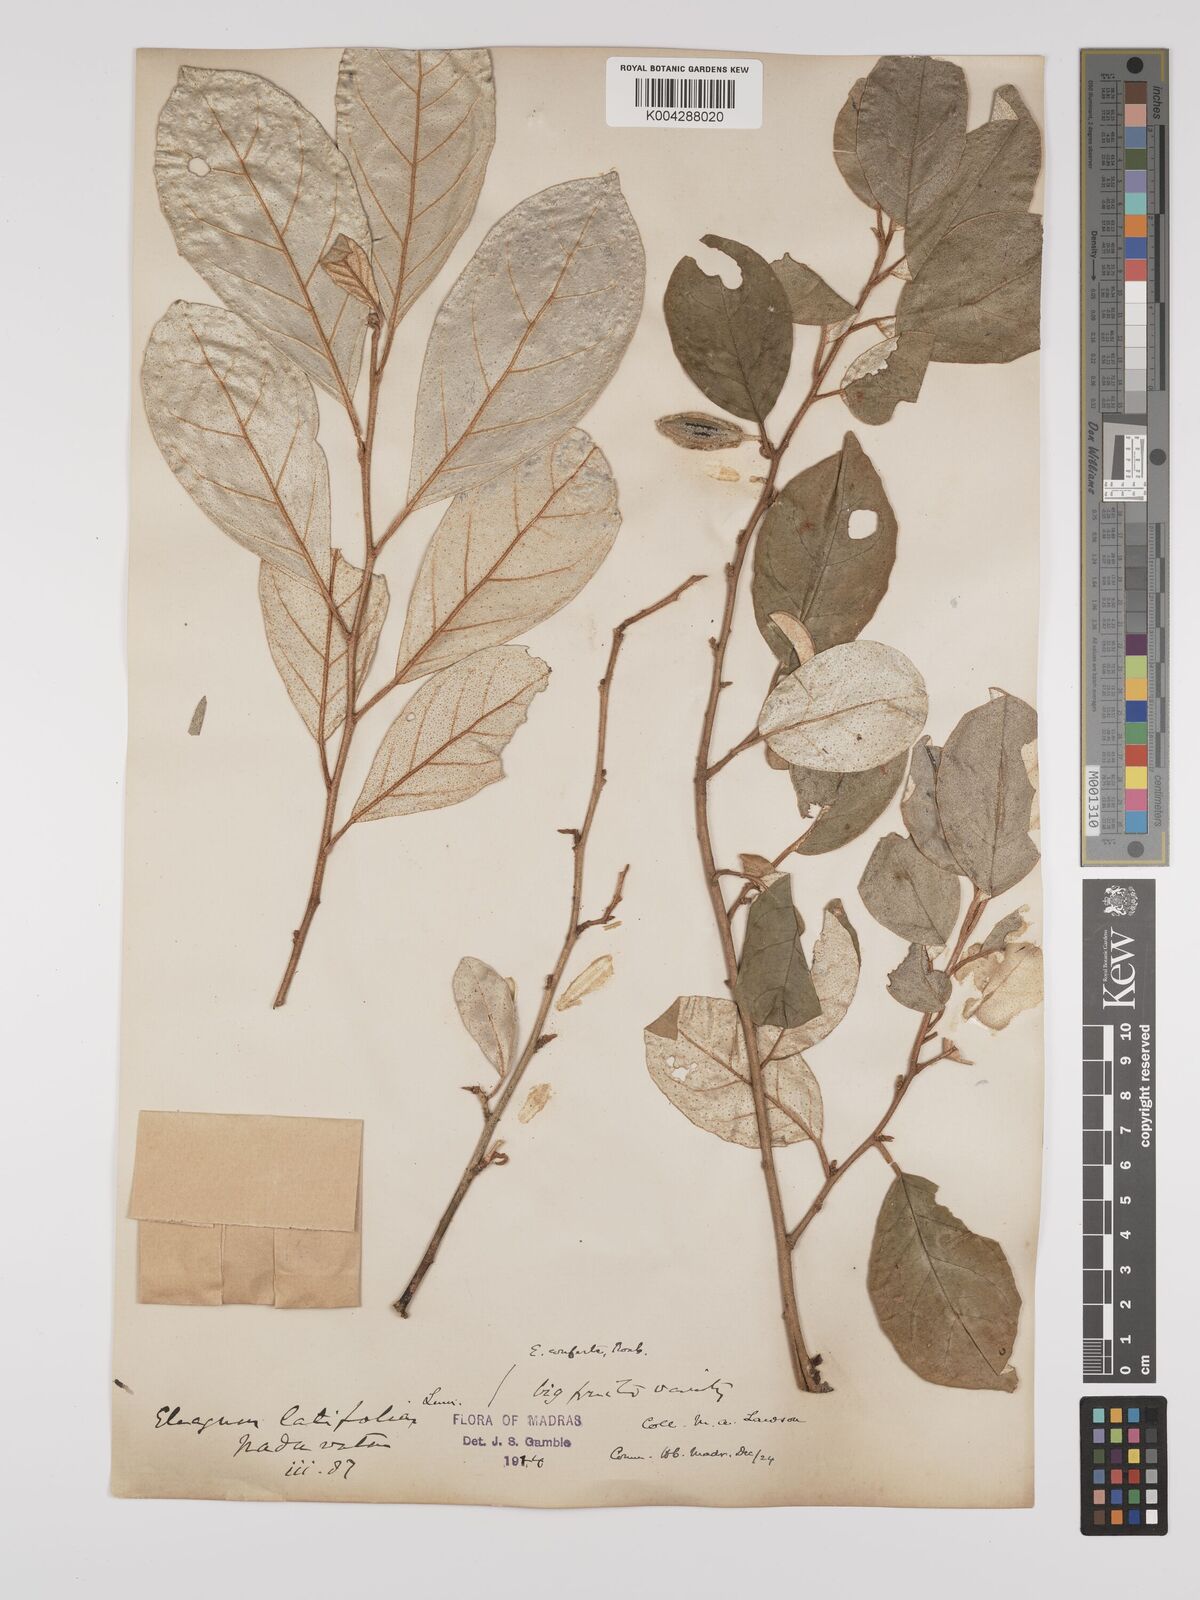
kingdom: Plantae
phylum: Tracheophyta
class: Magnoliopsida
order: Rosales
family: Elaeagnaceae
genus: Elaeagnus
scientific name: Elaeagnus latifolia
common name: Oleaster
